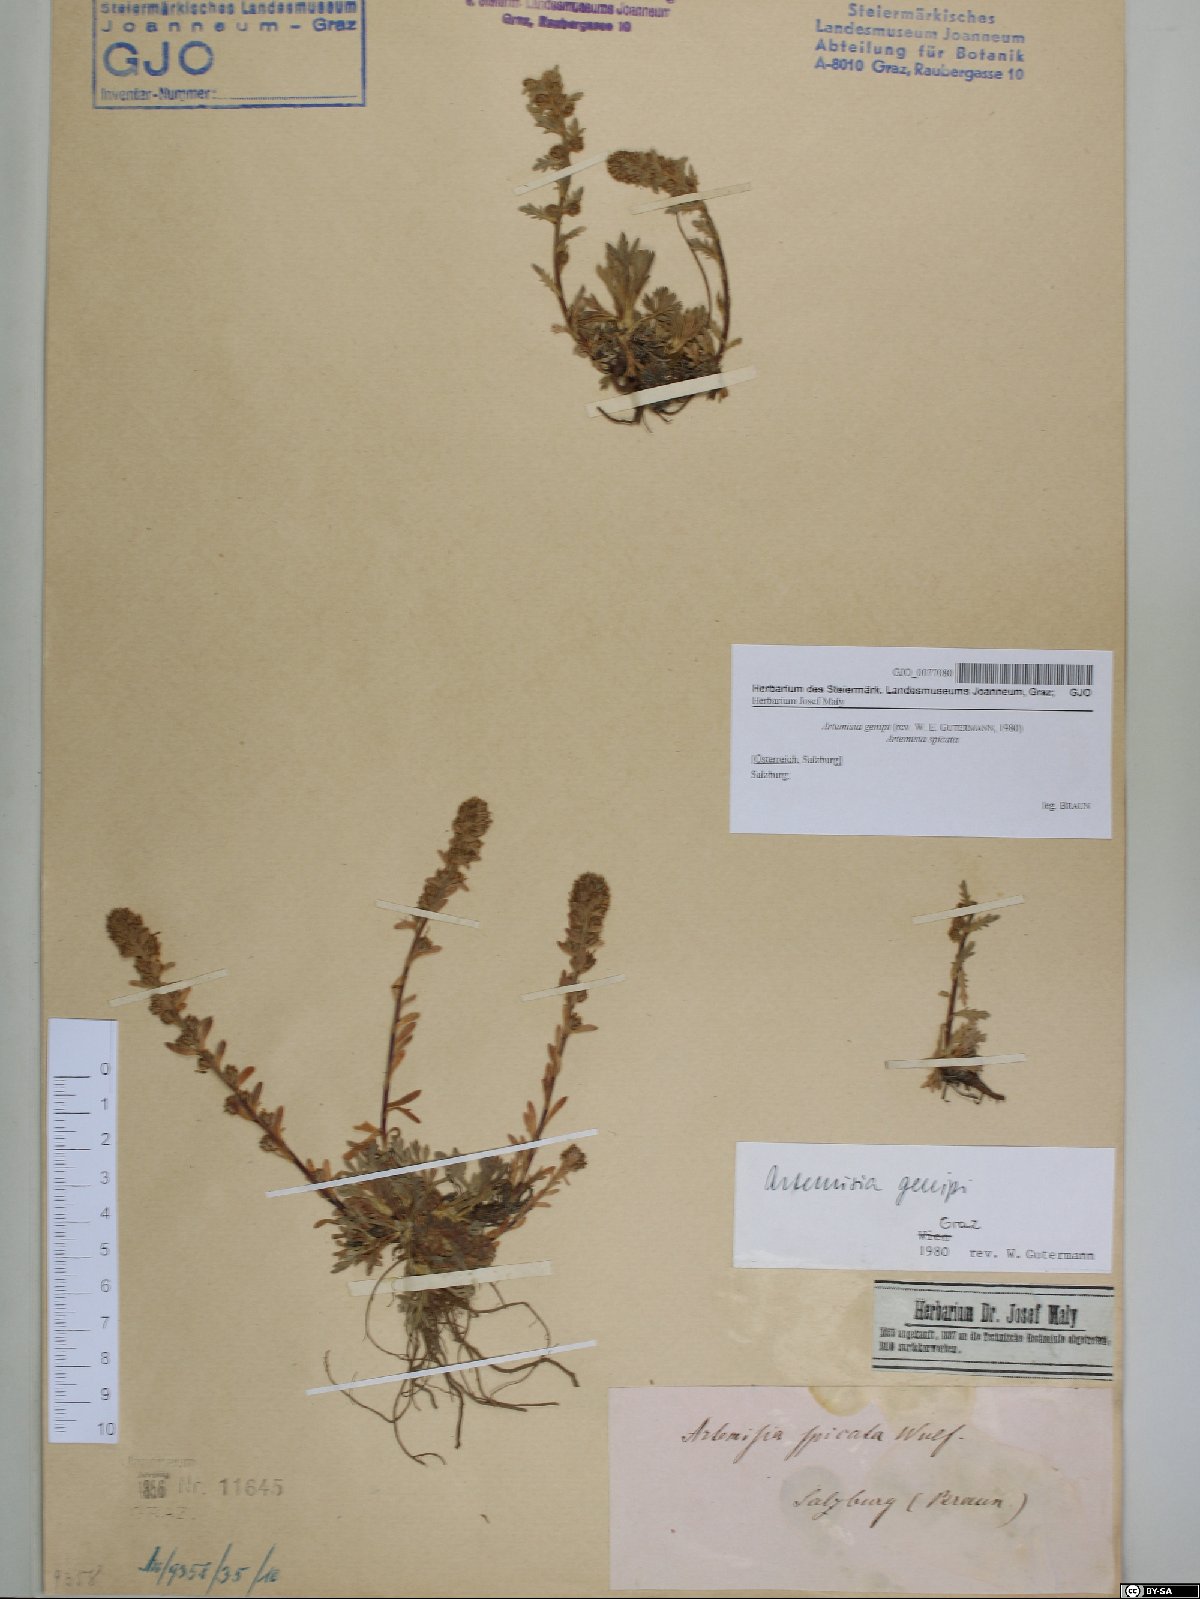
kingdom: Plantae
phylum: Tracheophyta
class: Magnoliopsida
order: Asterales
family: Asteraceae
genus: Artemisia
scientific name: Artemisia genipi
